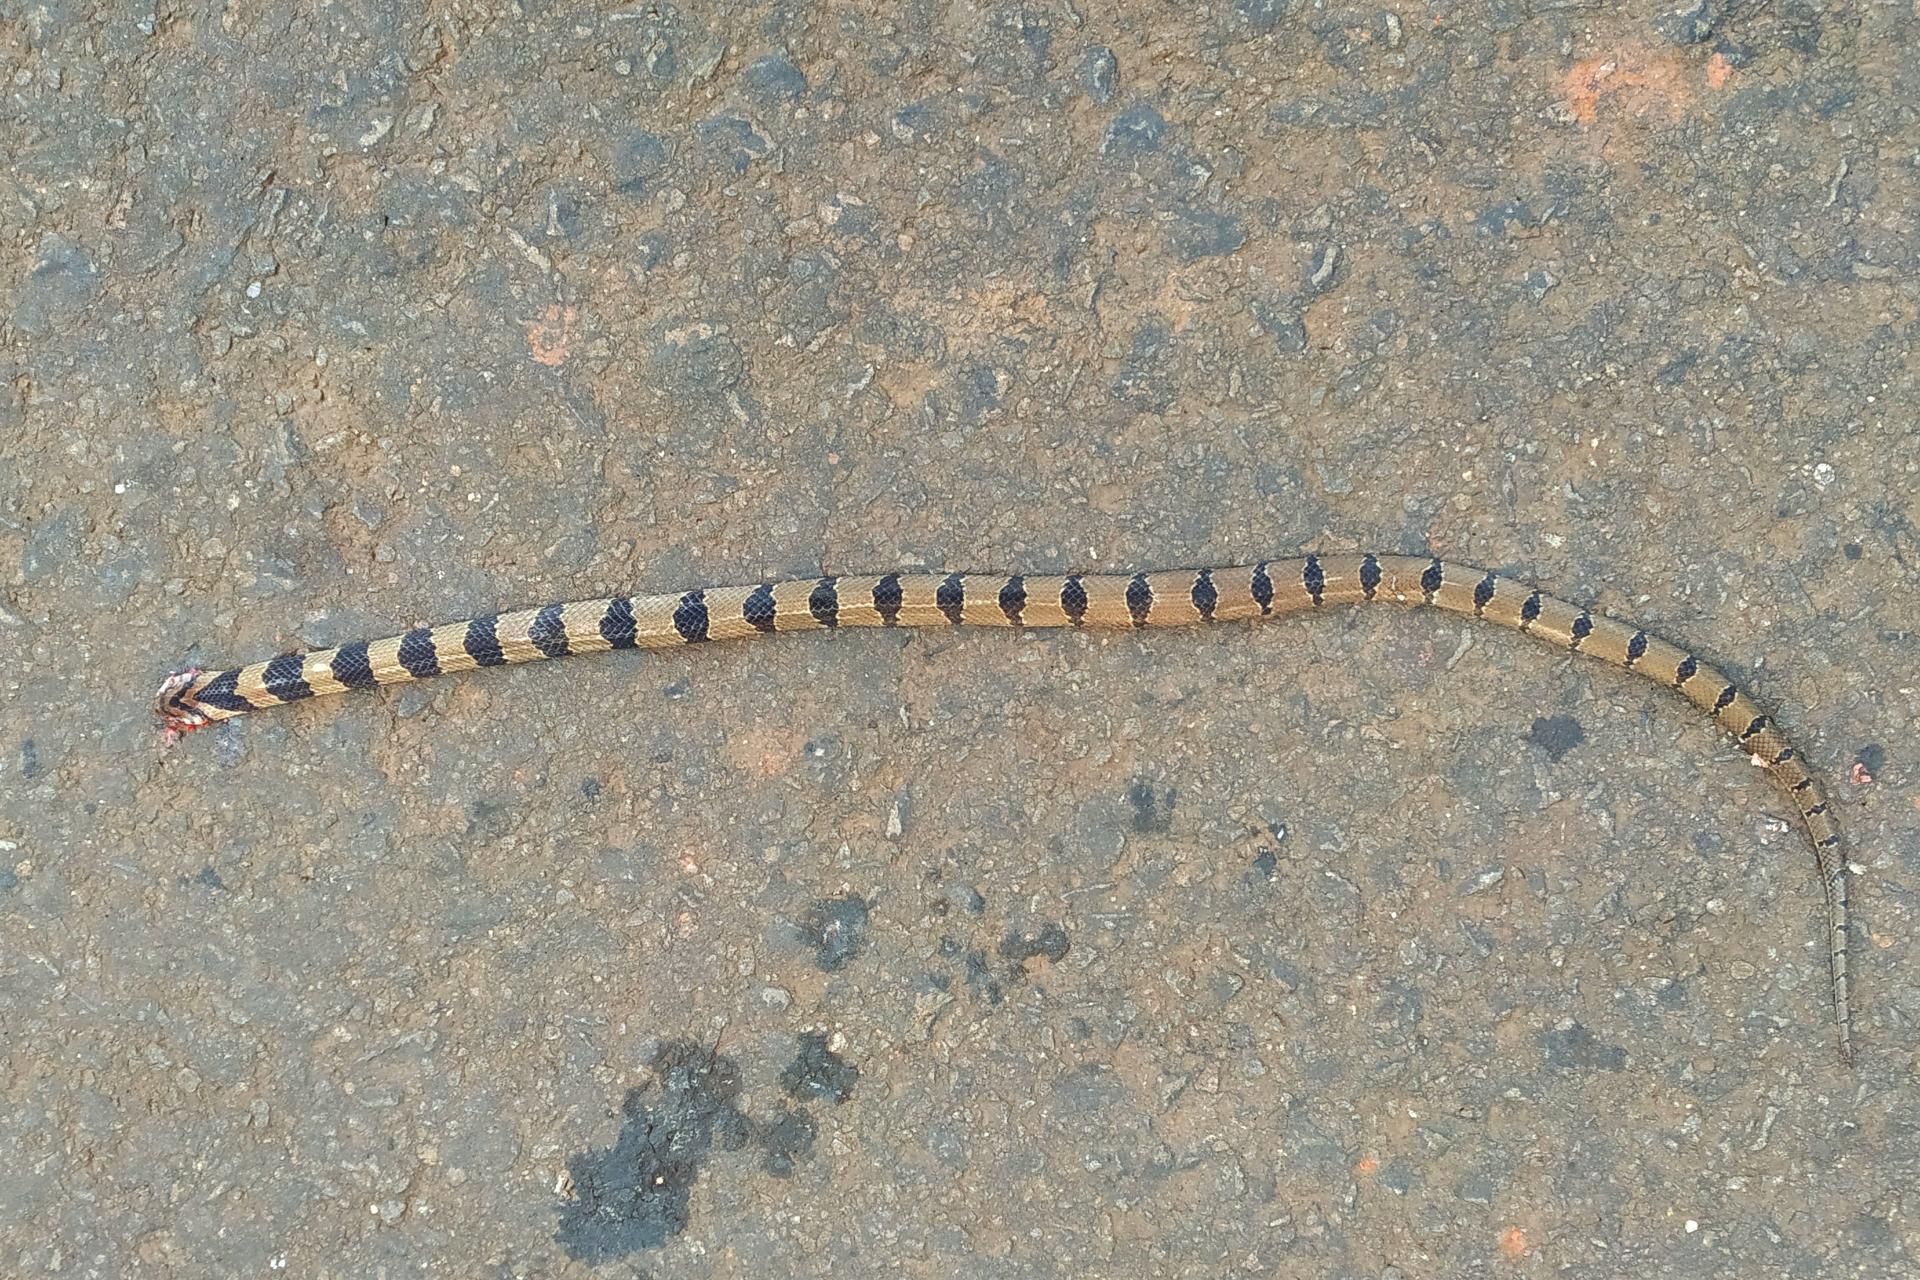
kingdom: Animalia
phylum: Chordata
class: Squamata
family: Colubridae
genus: Oligodon
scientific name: Oligodon arnensis
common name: Banded kukri
